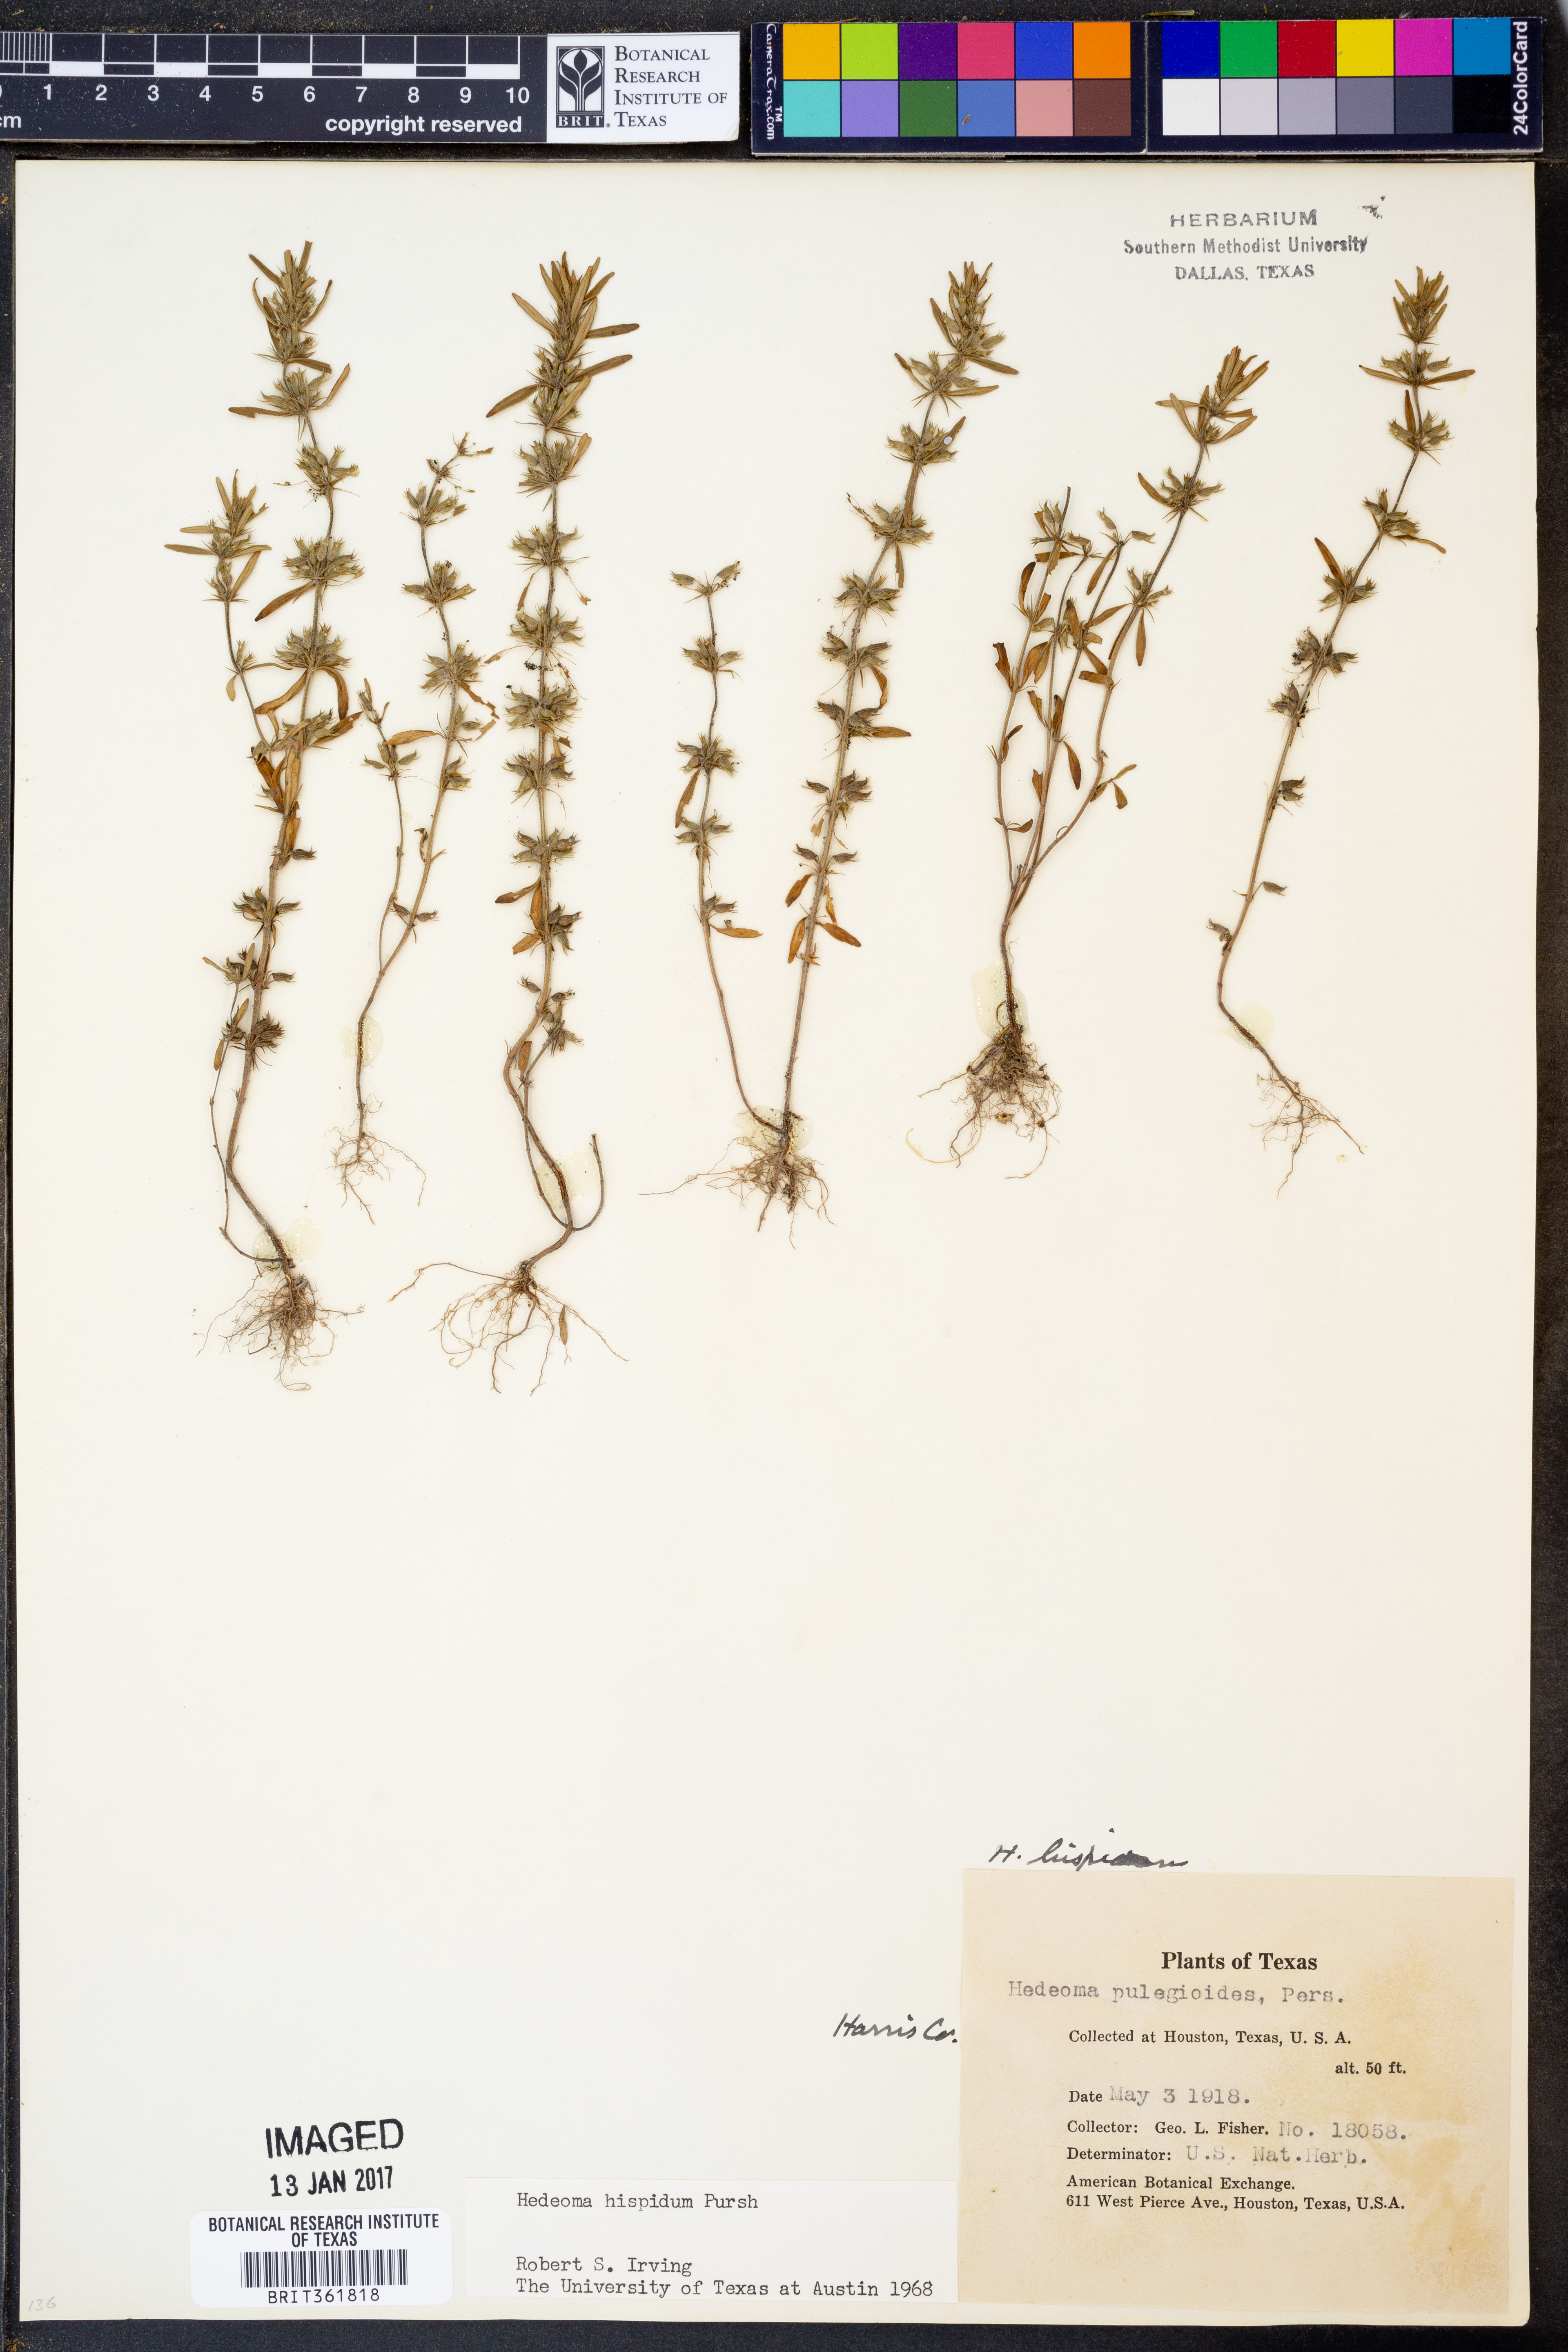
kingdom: Plantae
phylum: Tracheophyta
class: Magnoliopsida
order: Lamiales
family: Lamiaceae
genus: Hedeoma
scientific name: Hedeoma hispida
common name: Mock pennyroyal
